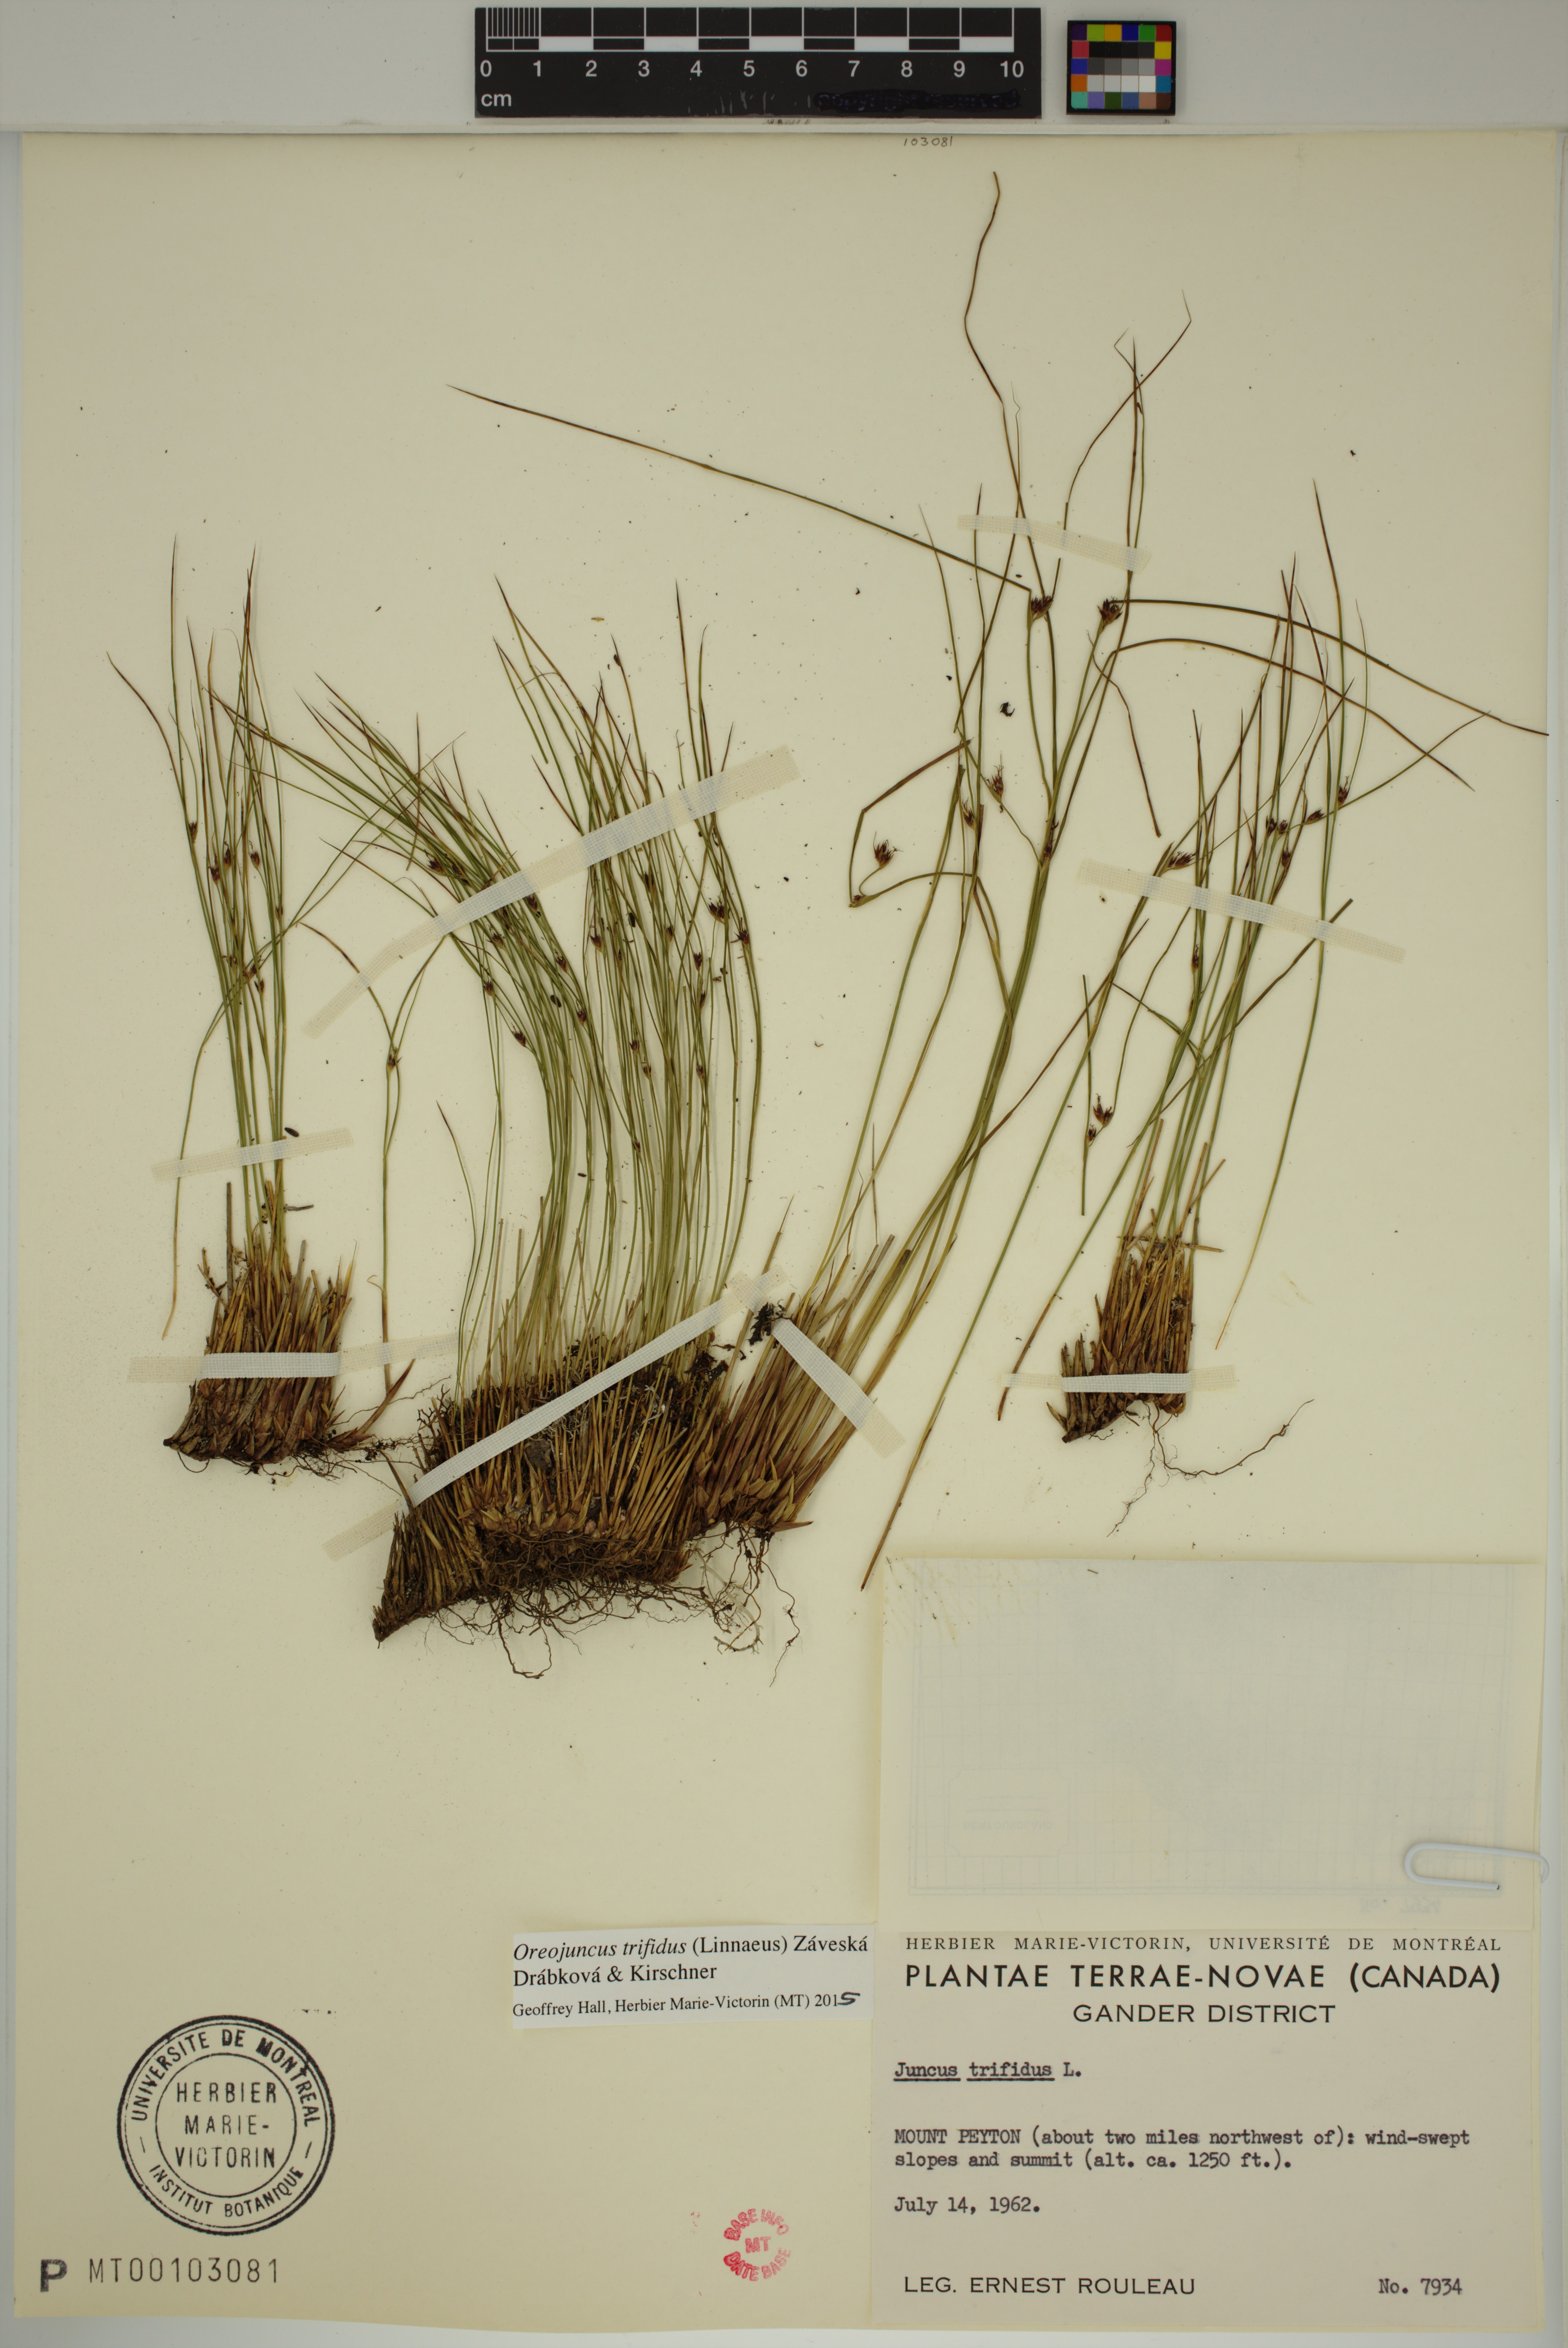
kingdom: Plantae
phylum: Tracheophyta
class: Liliopsida
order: Poales
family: Juncaceae
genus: Oreojuncus
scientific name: Oreojuncus trifidus
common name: Highland rush
